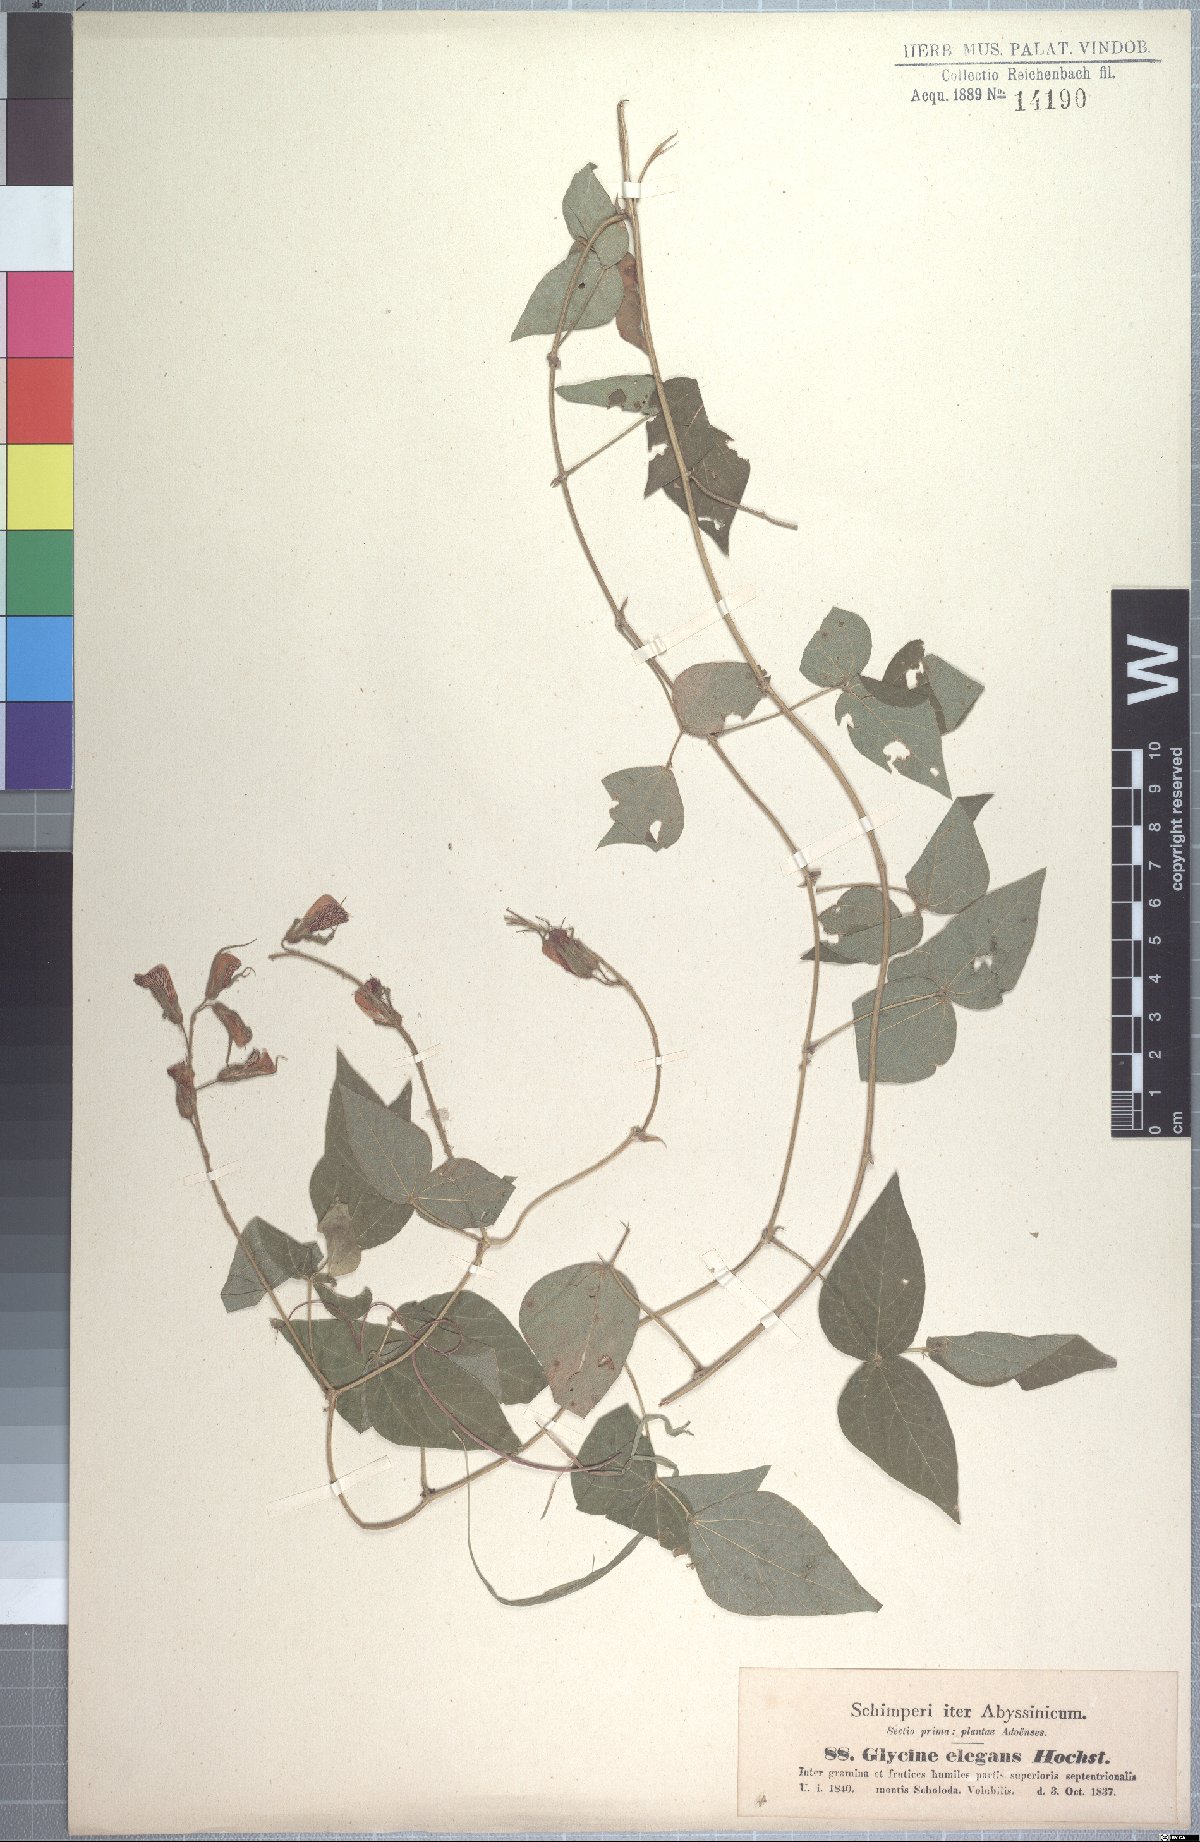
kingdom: Plantae
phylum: Tracheophyta
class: Magnoliopsida
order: Fabales
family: Fabaceae
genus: Rhynchosia
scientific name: Rhynchosia elegans
